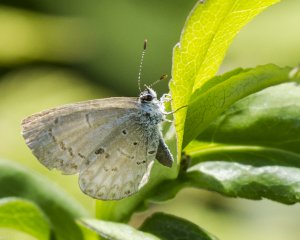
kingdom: Animalia
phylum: Arthropoda
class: Insecta
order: Lepidoptera
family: Lycaenidae
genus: Cyaniris
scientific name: Cyaniris neglecta
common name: Summer Azure
